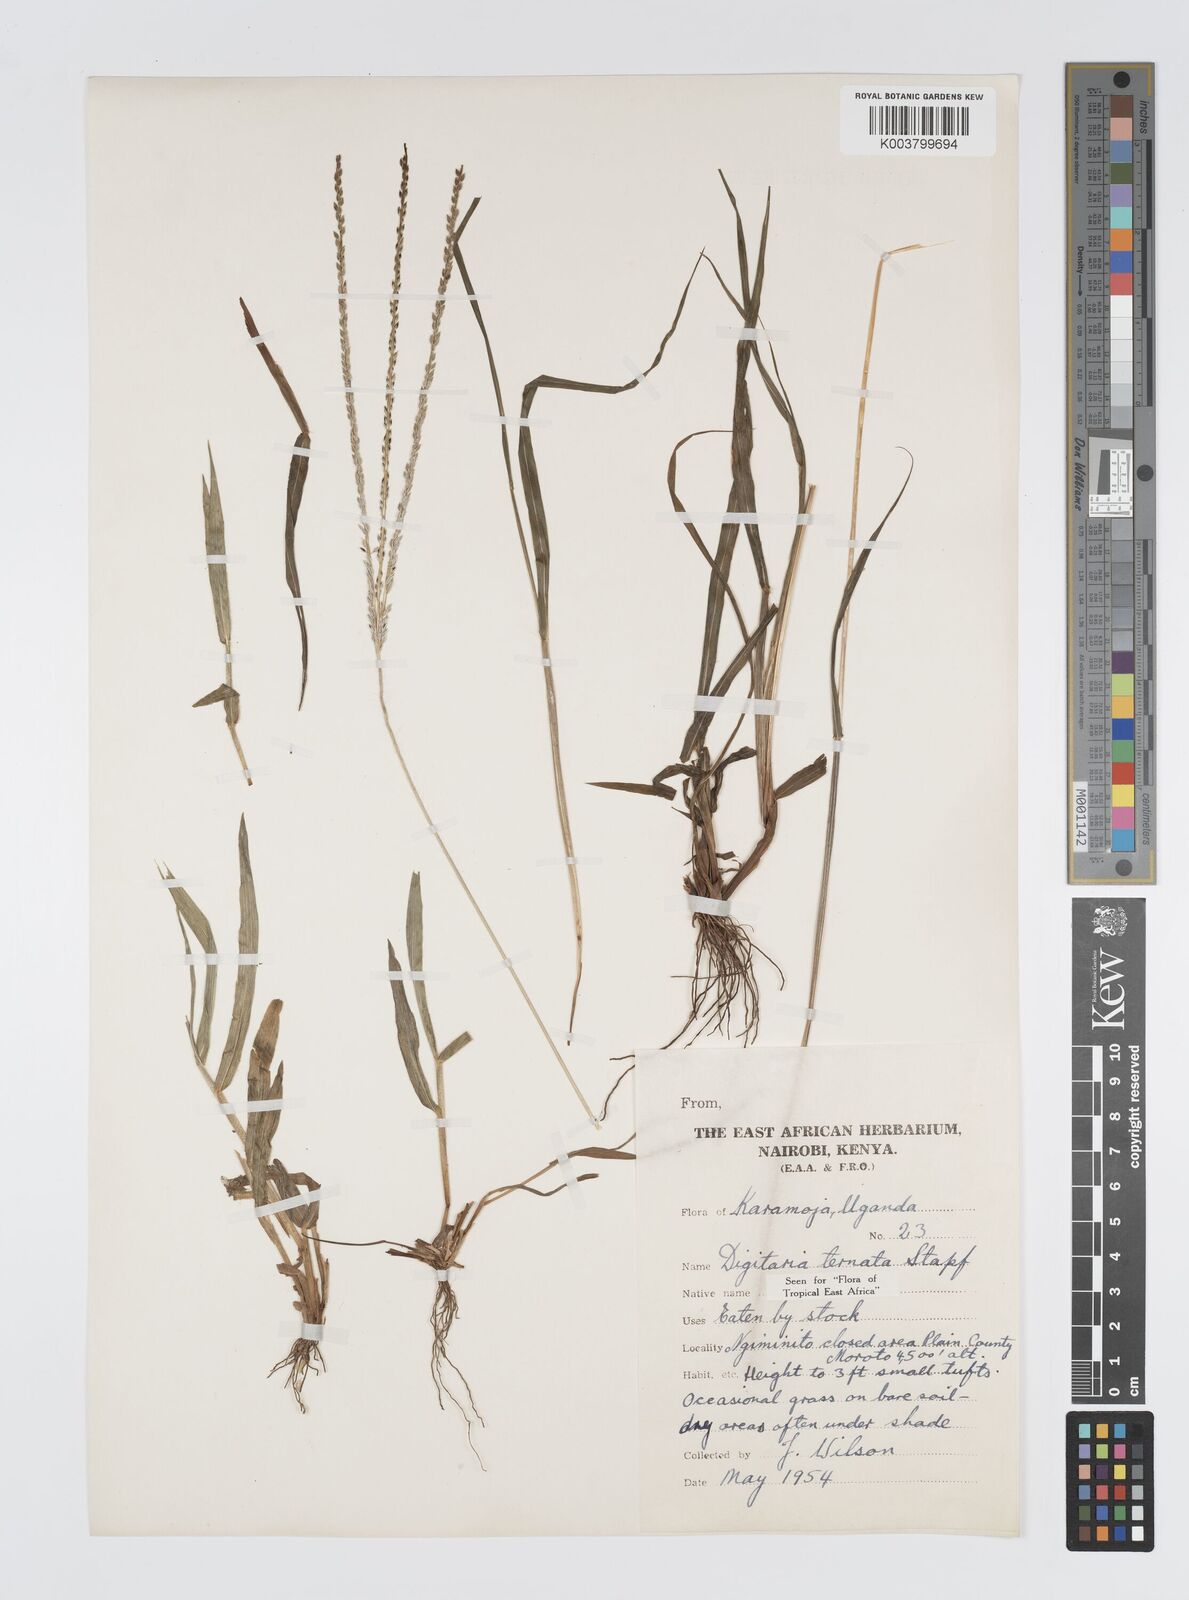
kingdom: Plantae
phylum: Tracheophyta
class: Liliopsida
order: Poales
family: Poaceae
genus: Digitaria
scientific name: Digitaria ternata
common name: Blackseed crabgrass
